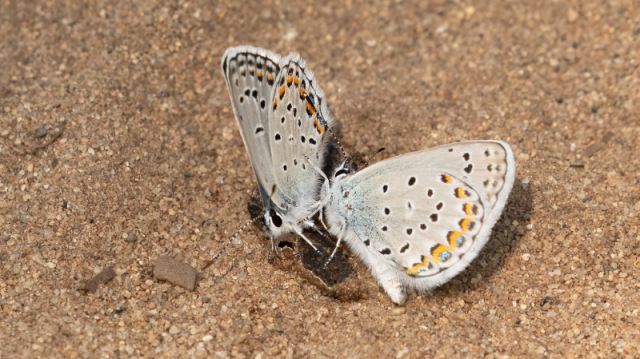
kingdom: Animalia
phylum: Arthropoda
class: Insecta
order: Lepidoptera
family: Lycaenidae
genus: Plebejus
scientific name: Plebejus samuelis
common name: Karner Blue
